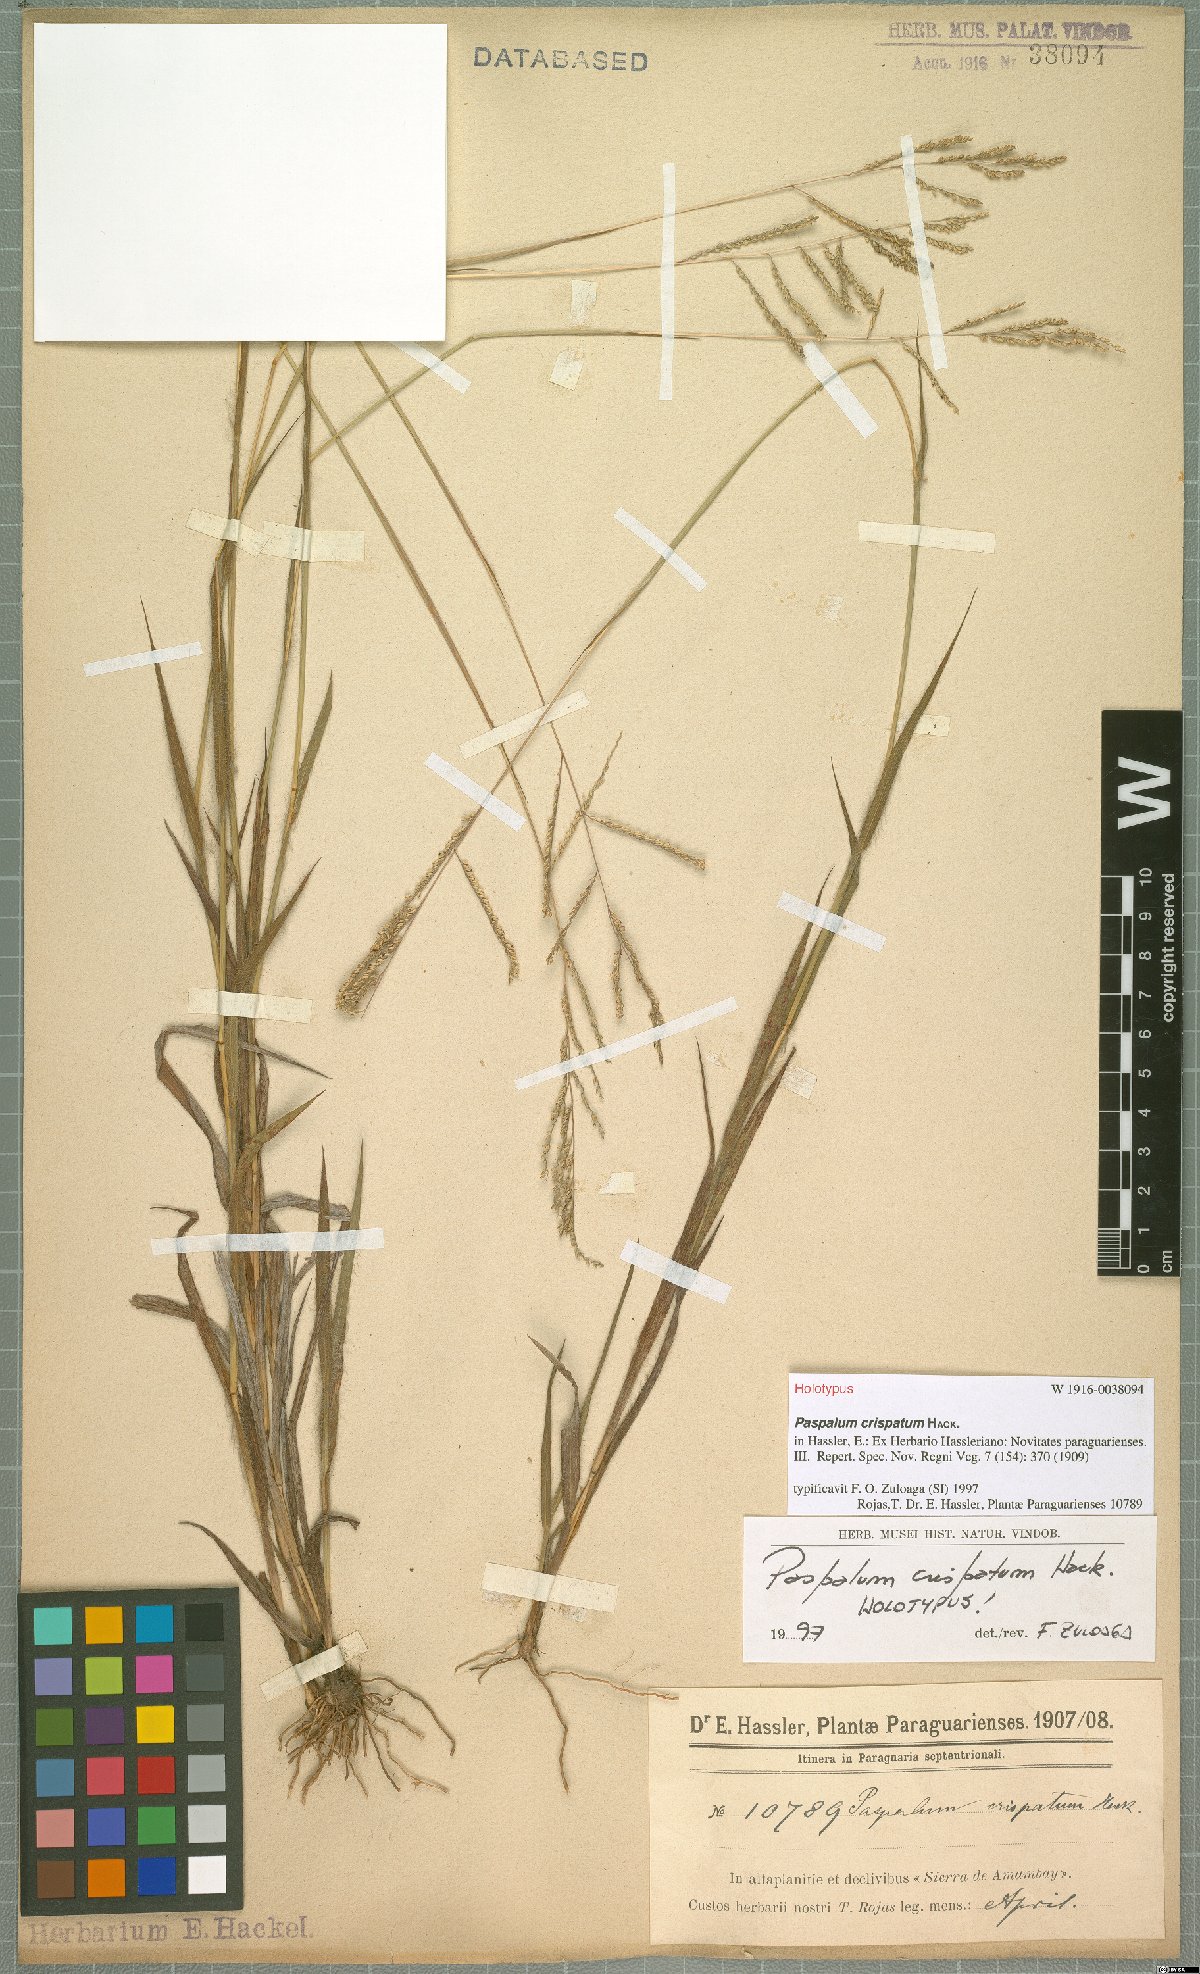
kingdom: Plantae
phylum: Tracheophyta
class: Liliopsida
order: Poales
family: Poaceae
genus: Paspalum
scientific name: Paspalum crispatum
